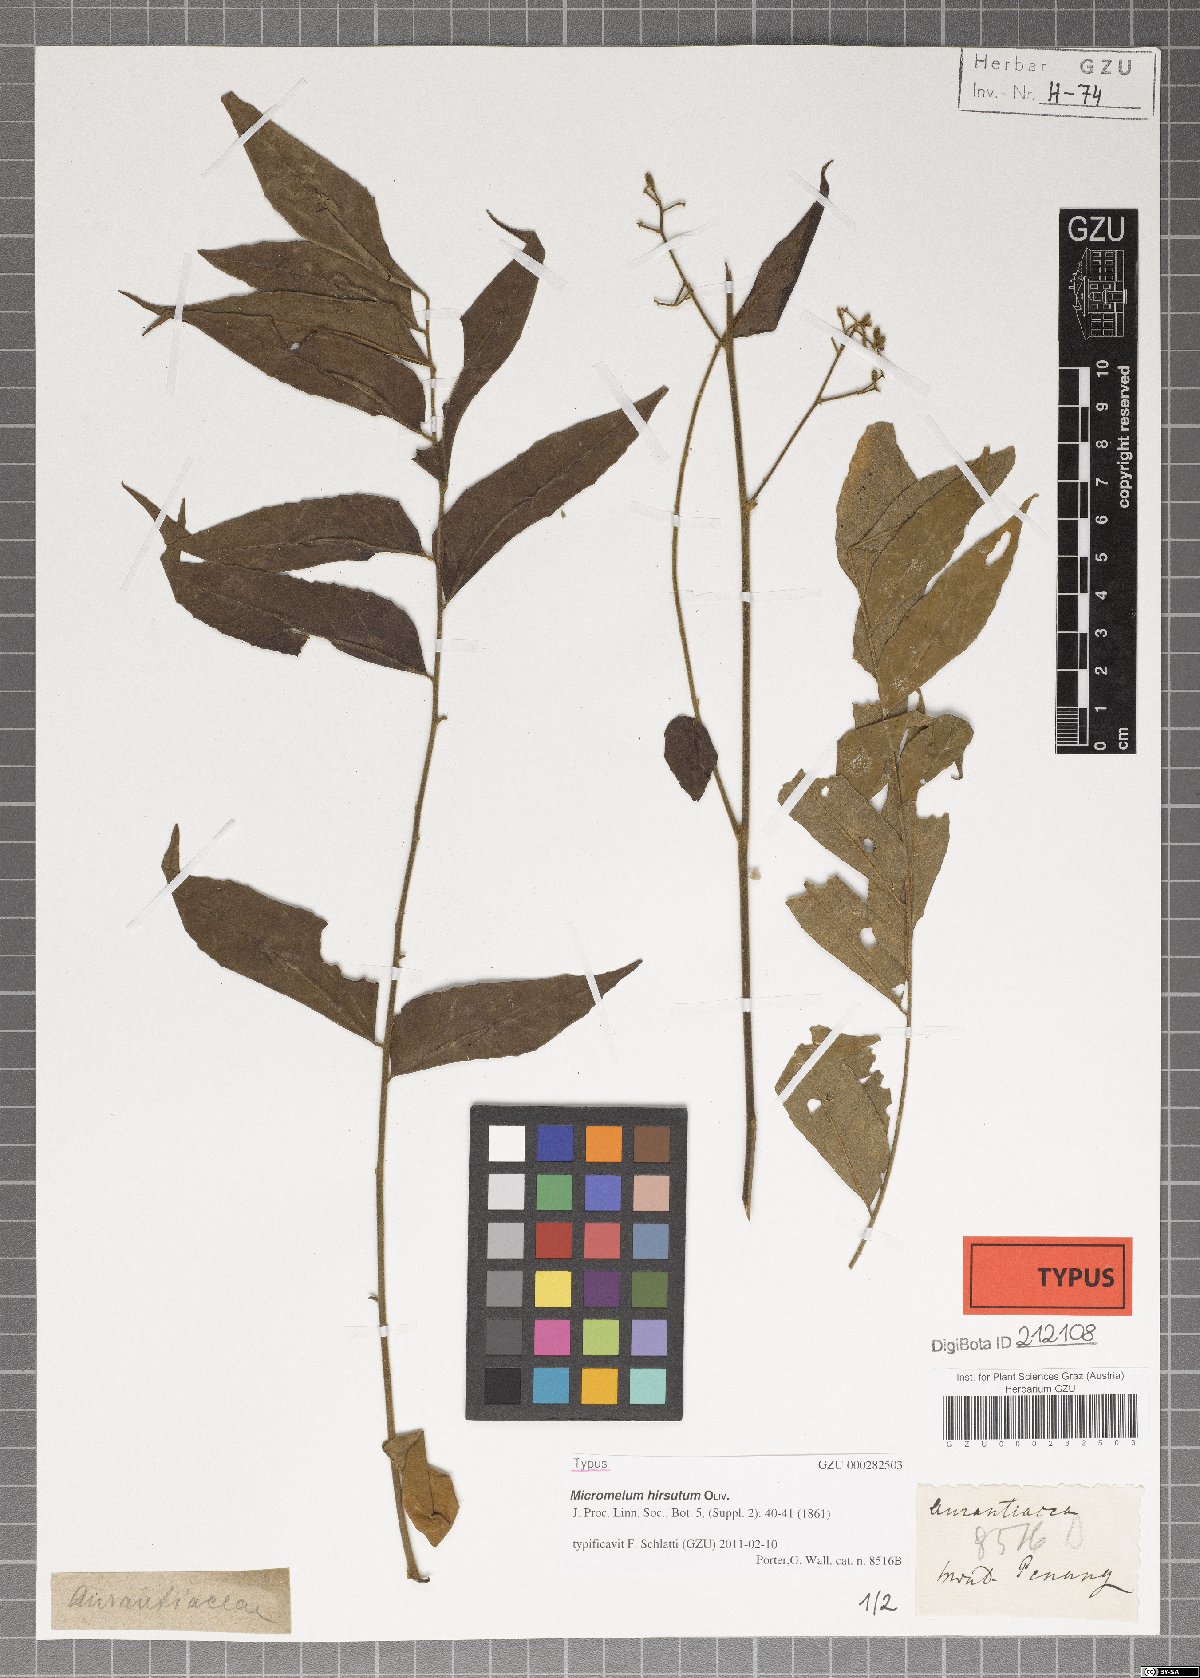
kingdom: Plantae
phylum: Tracheophyta
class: Magnoliopsida
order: Sapindales
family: Rutaceae
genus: Micromelum
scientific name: Micromelum hirsutum
